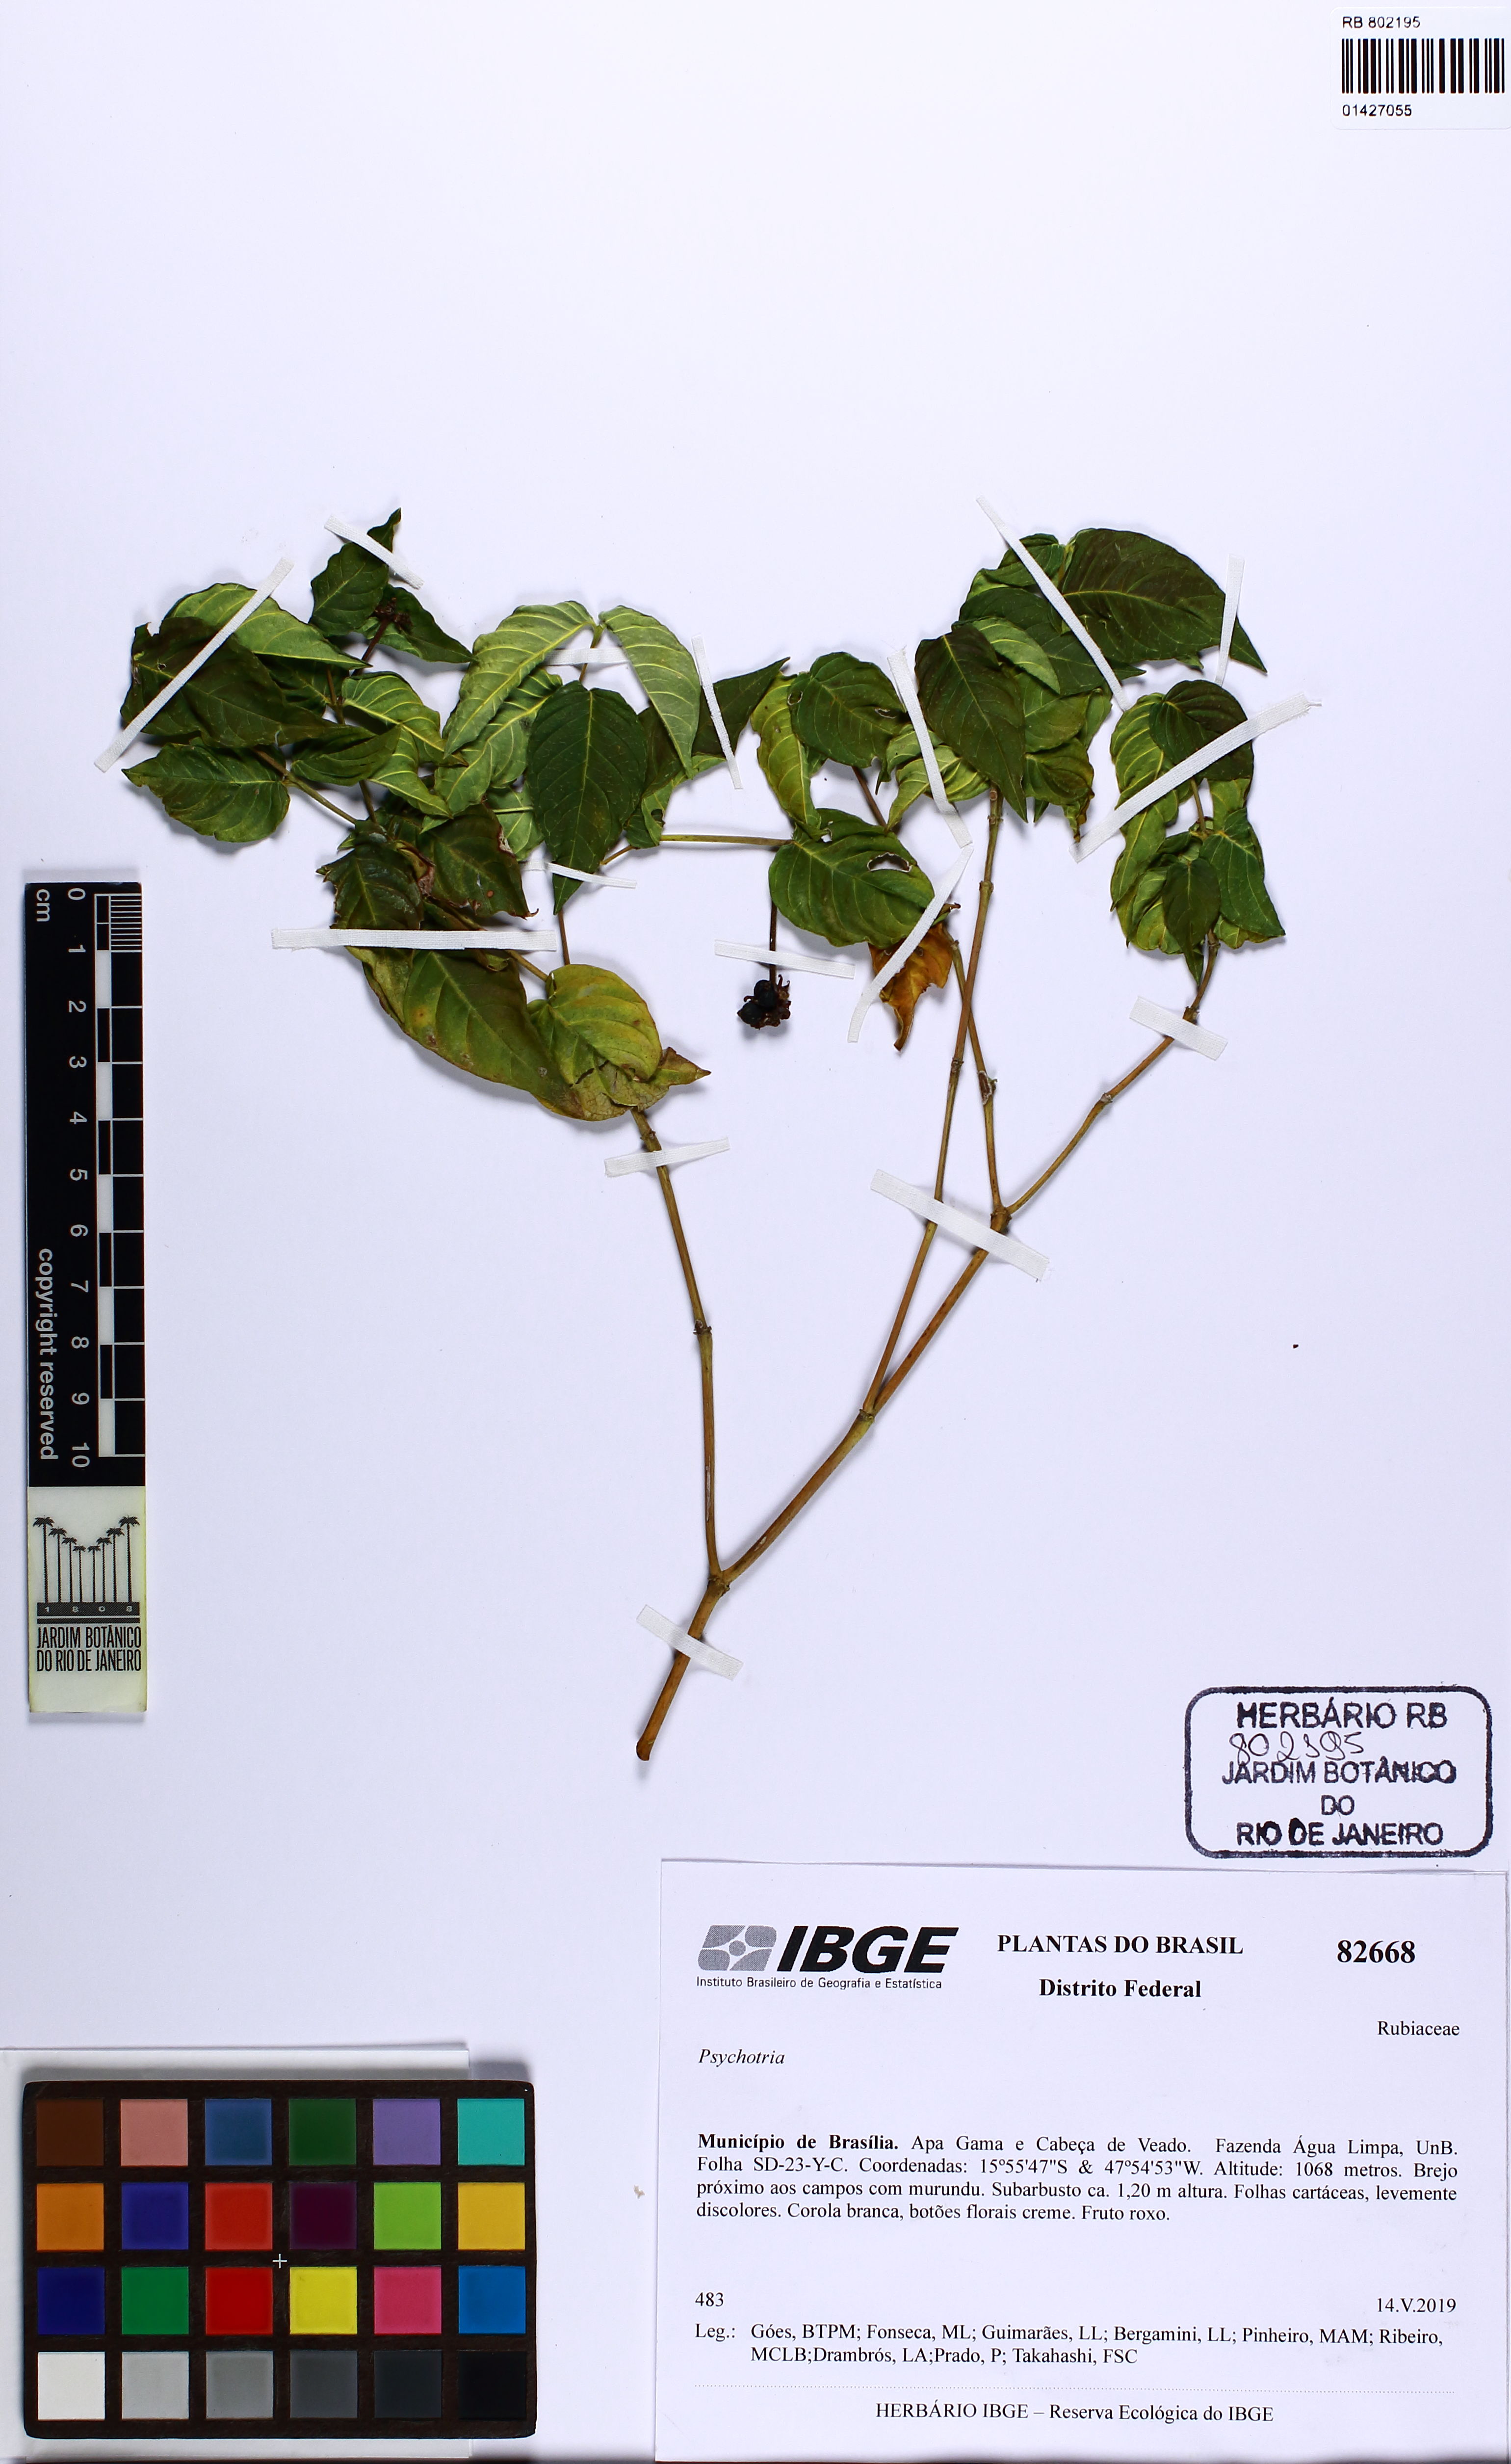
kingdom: Plantae
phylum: Tracheophyta
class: Magnoliopsida
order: Gentianales
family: Rubiaceae
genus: Psychotria
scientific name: Psychotria
